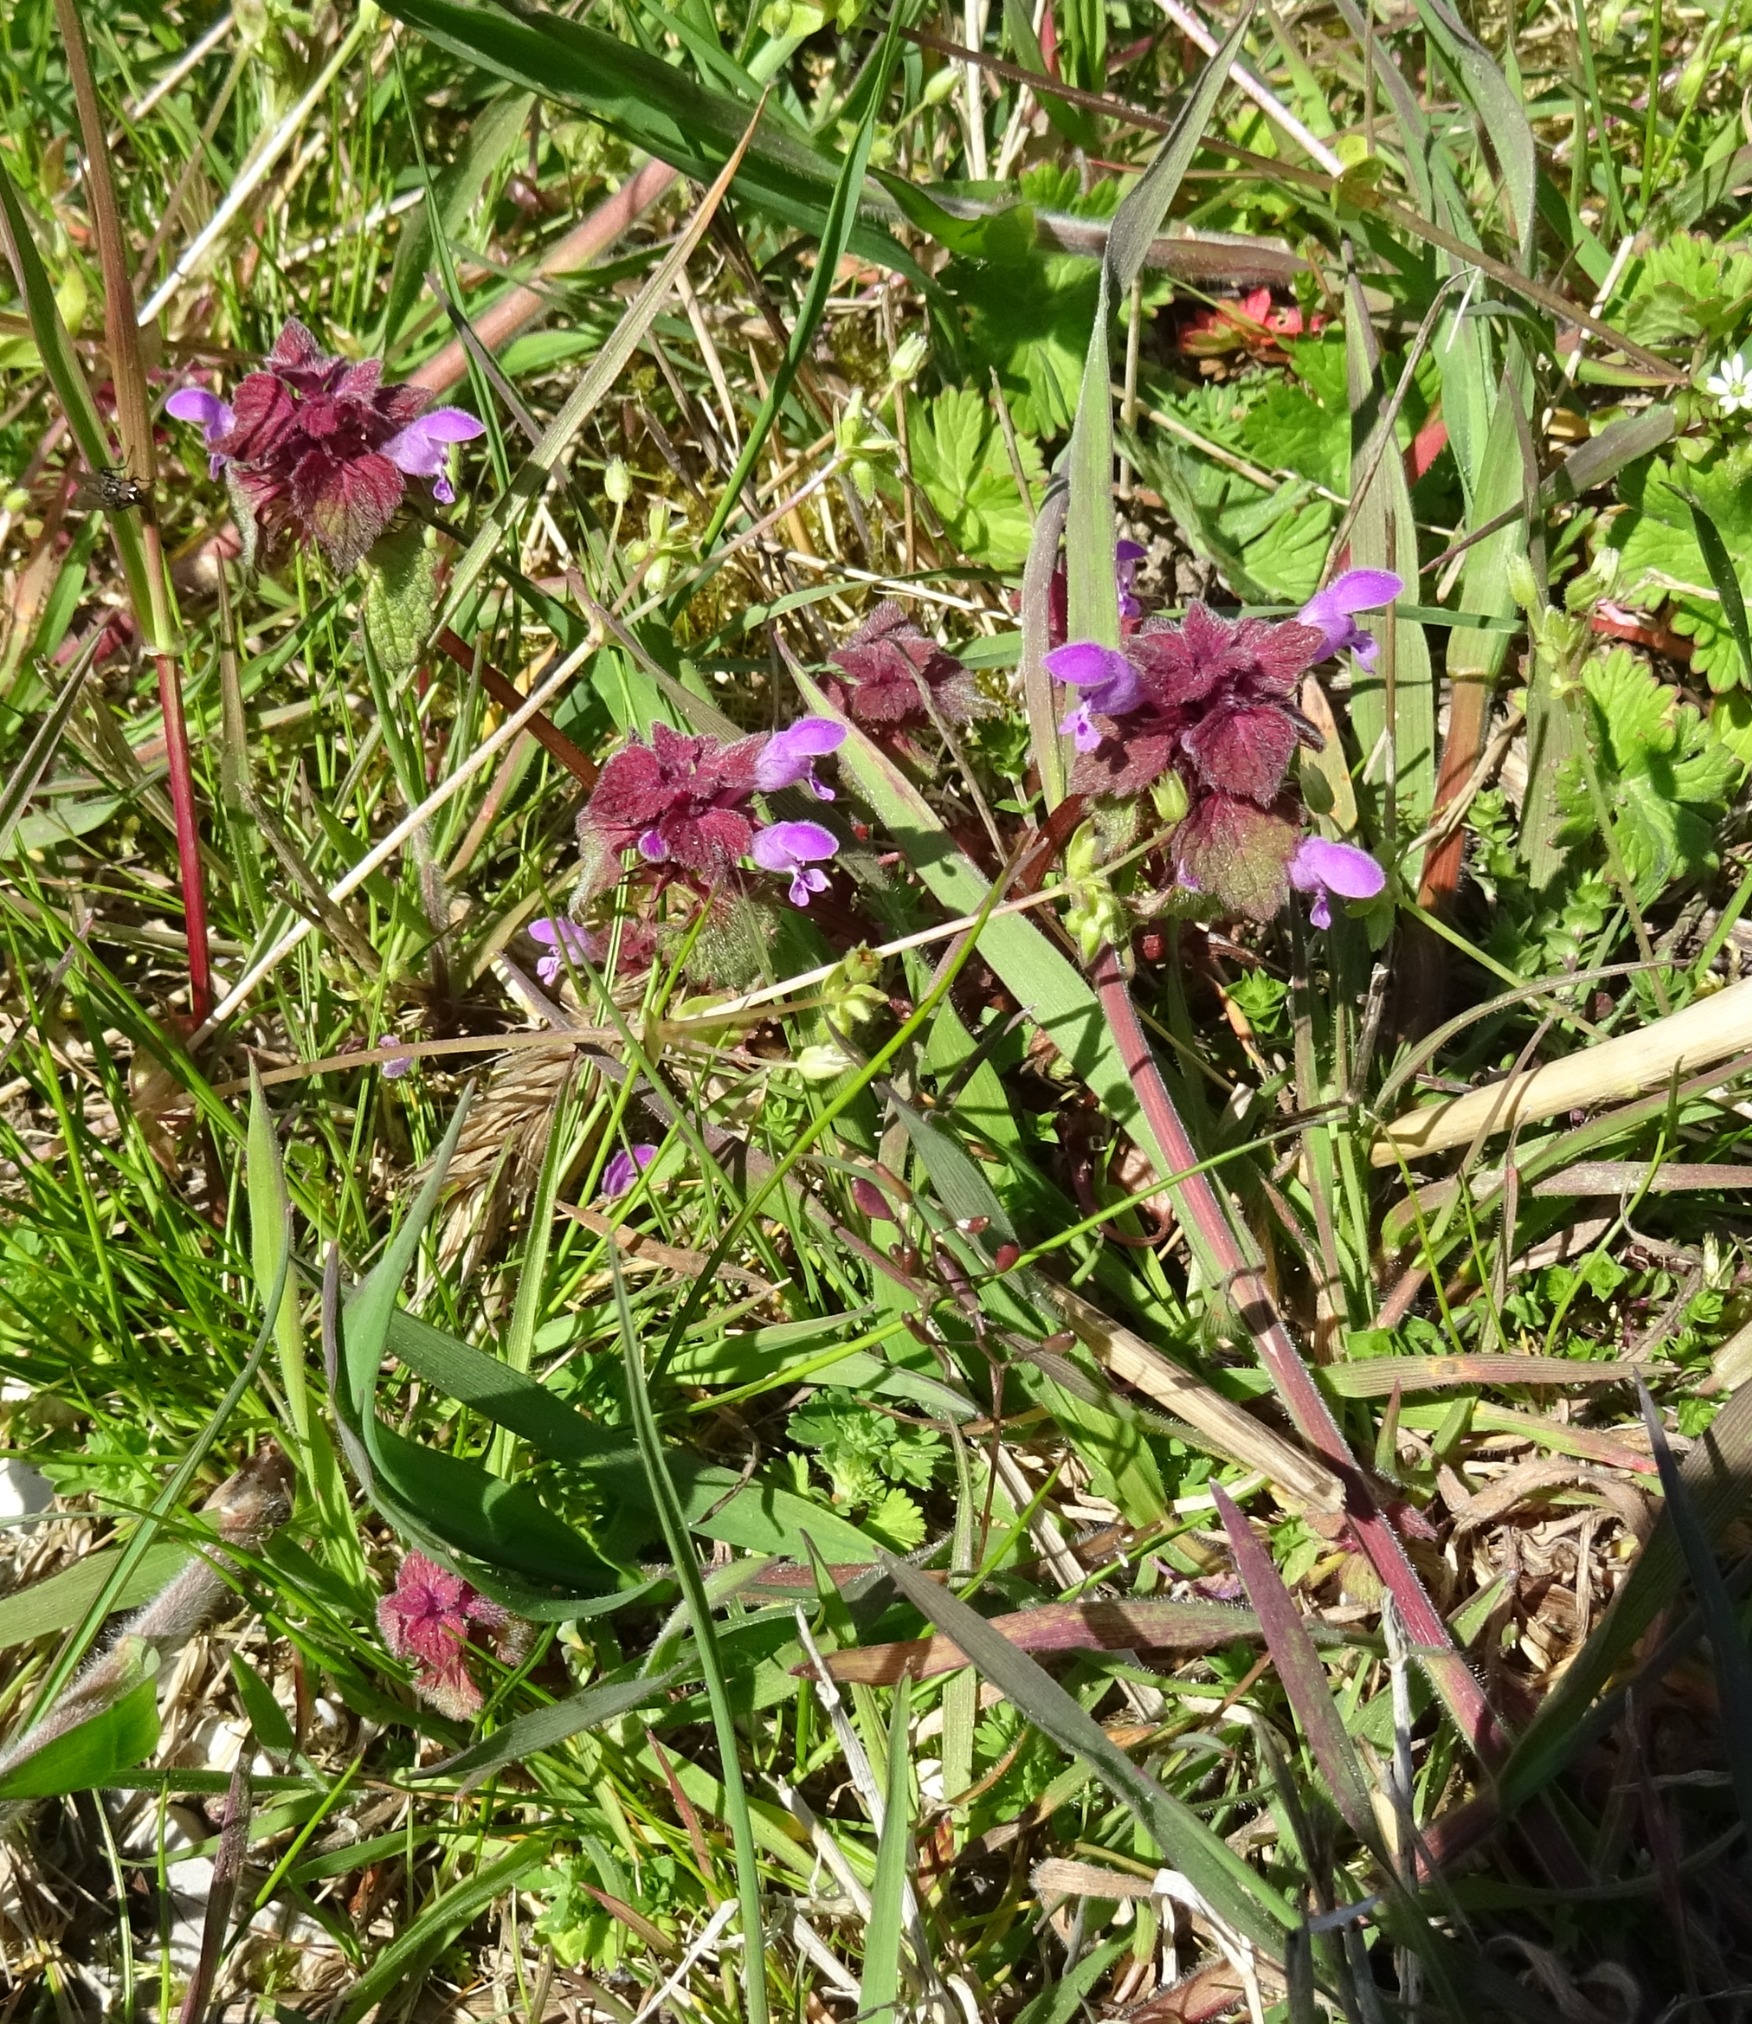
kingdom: Plantae
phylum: Tracheophyta
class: Magnoliopsida
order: Lamiales
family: Lamiaceae
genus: Lamium
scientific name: Lamium purpureum
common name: Rød tvetand
